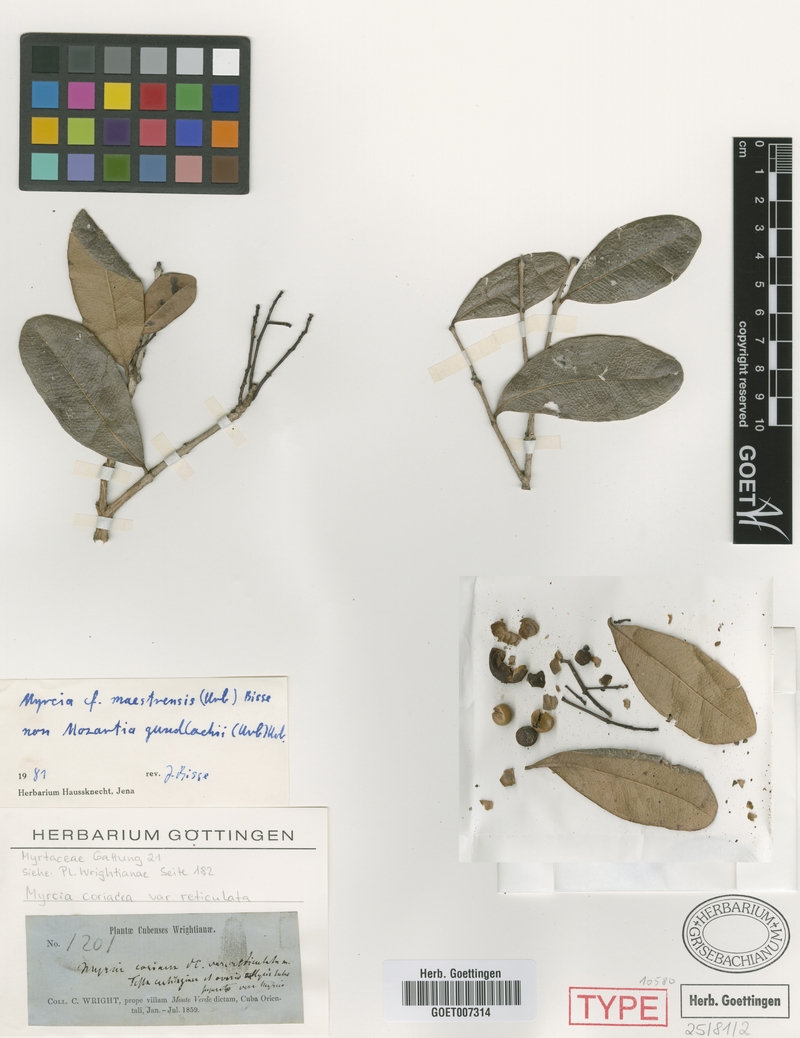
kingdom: Plantae
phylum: Tracheophyta
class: Magnoliopsida
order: Myrtales
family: Myrtaceae
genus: Myrcia
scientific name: Myrcia gundlachii
